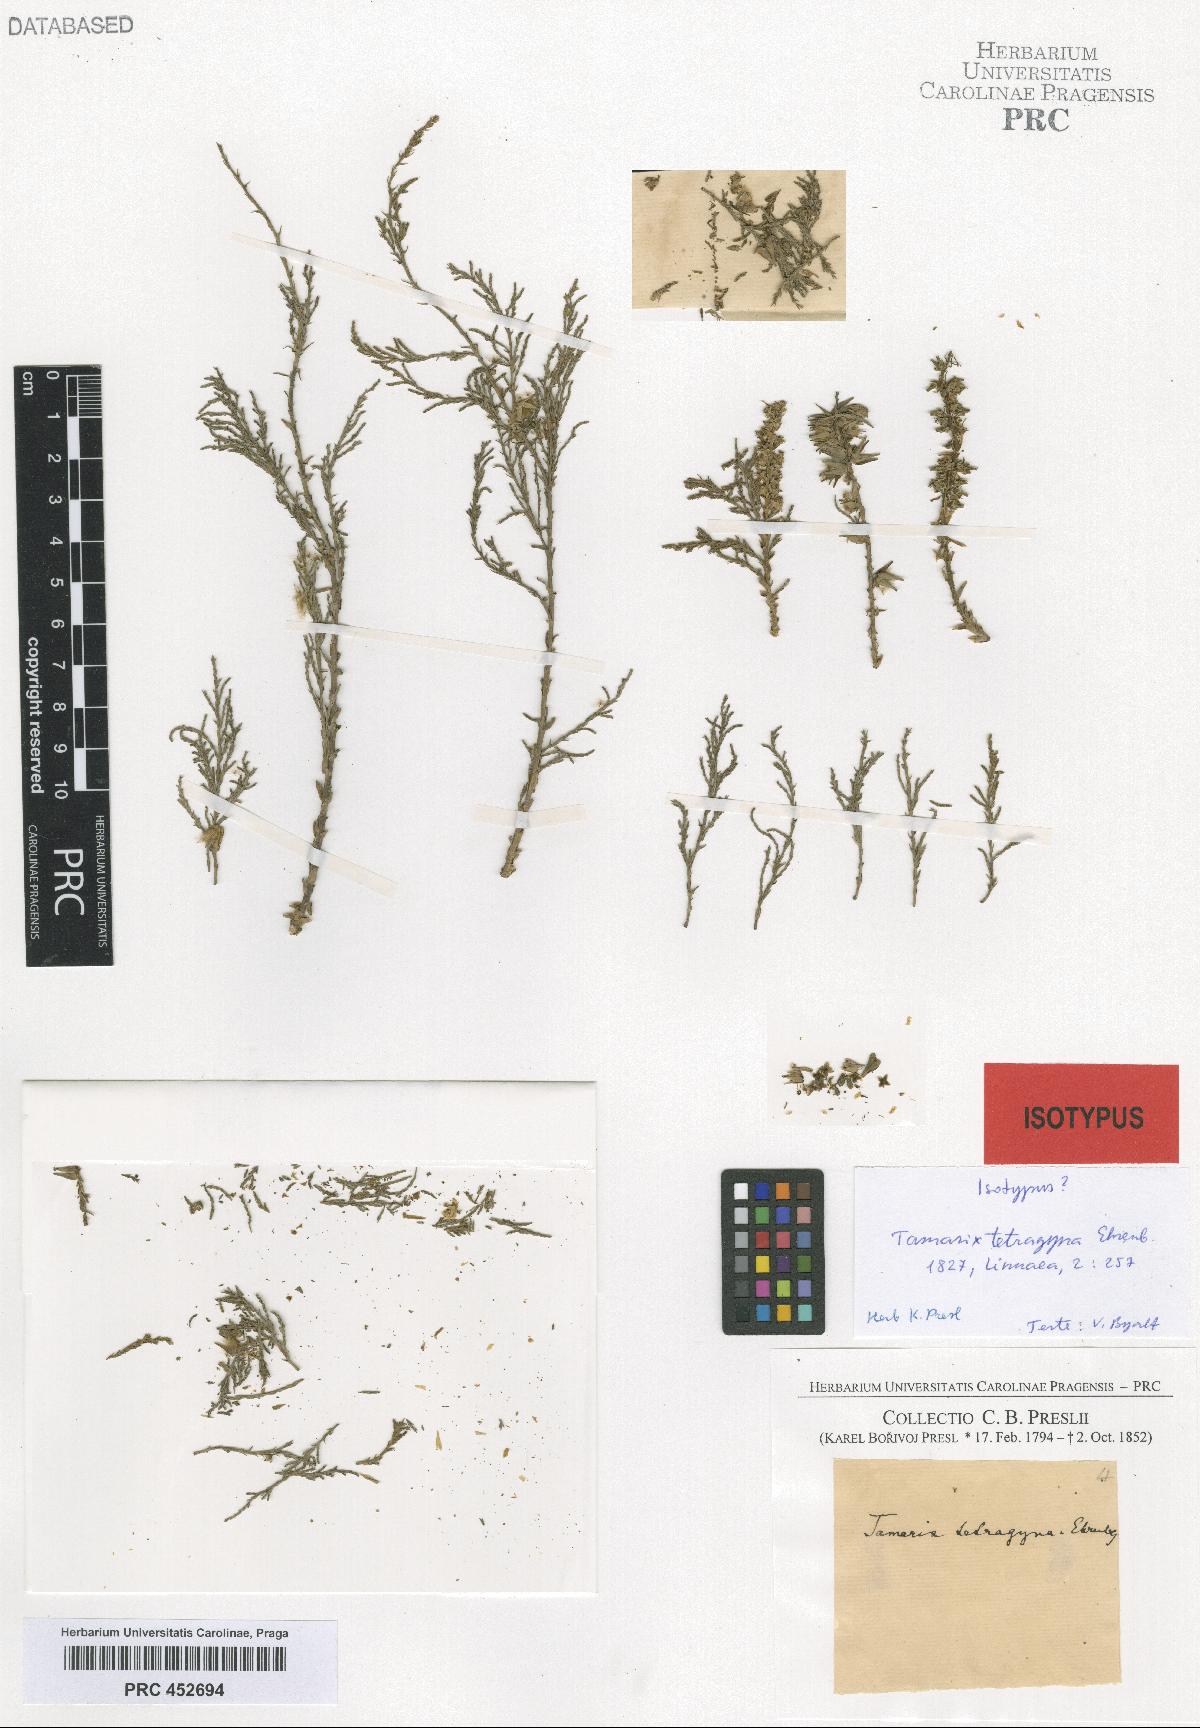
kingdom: Plantae
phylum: Tracheophyta
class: Magnoliopsida
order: Caryophyllales
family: Tamaricaceae
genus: Tamarix
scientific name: Tamarix tetragyna
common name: Four-stamen tamarisk
